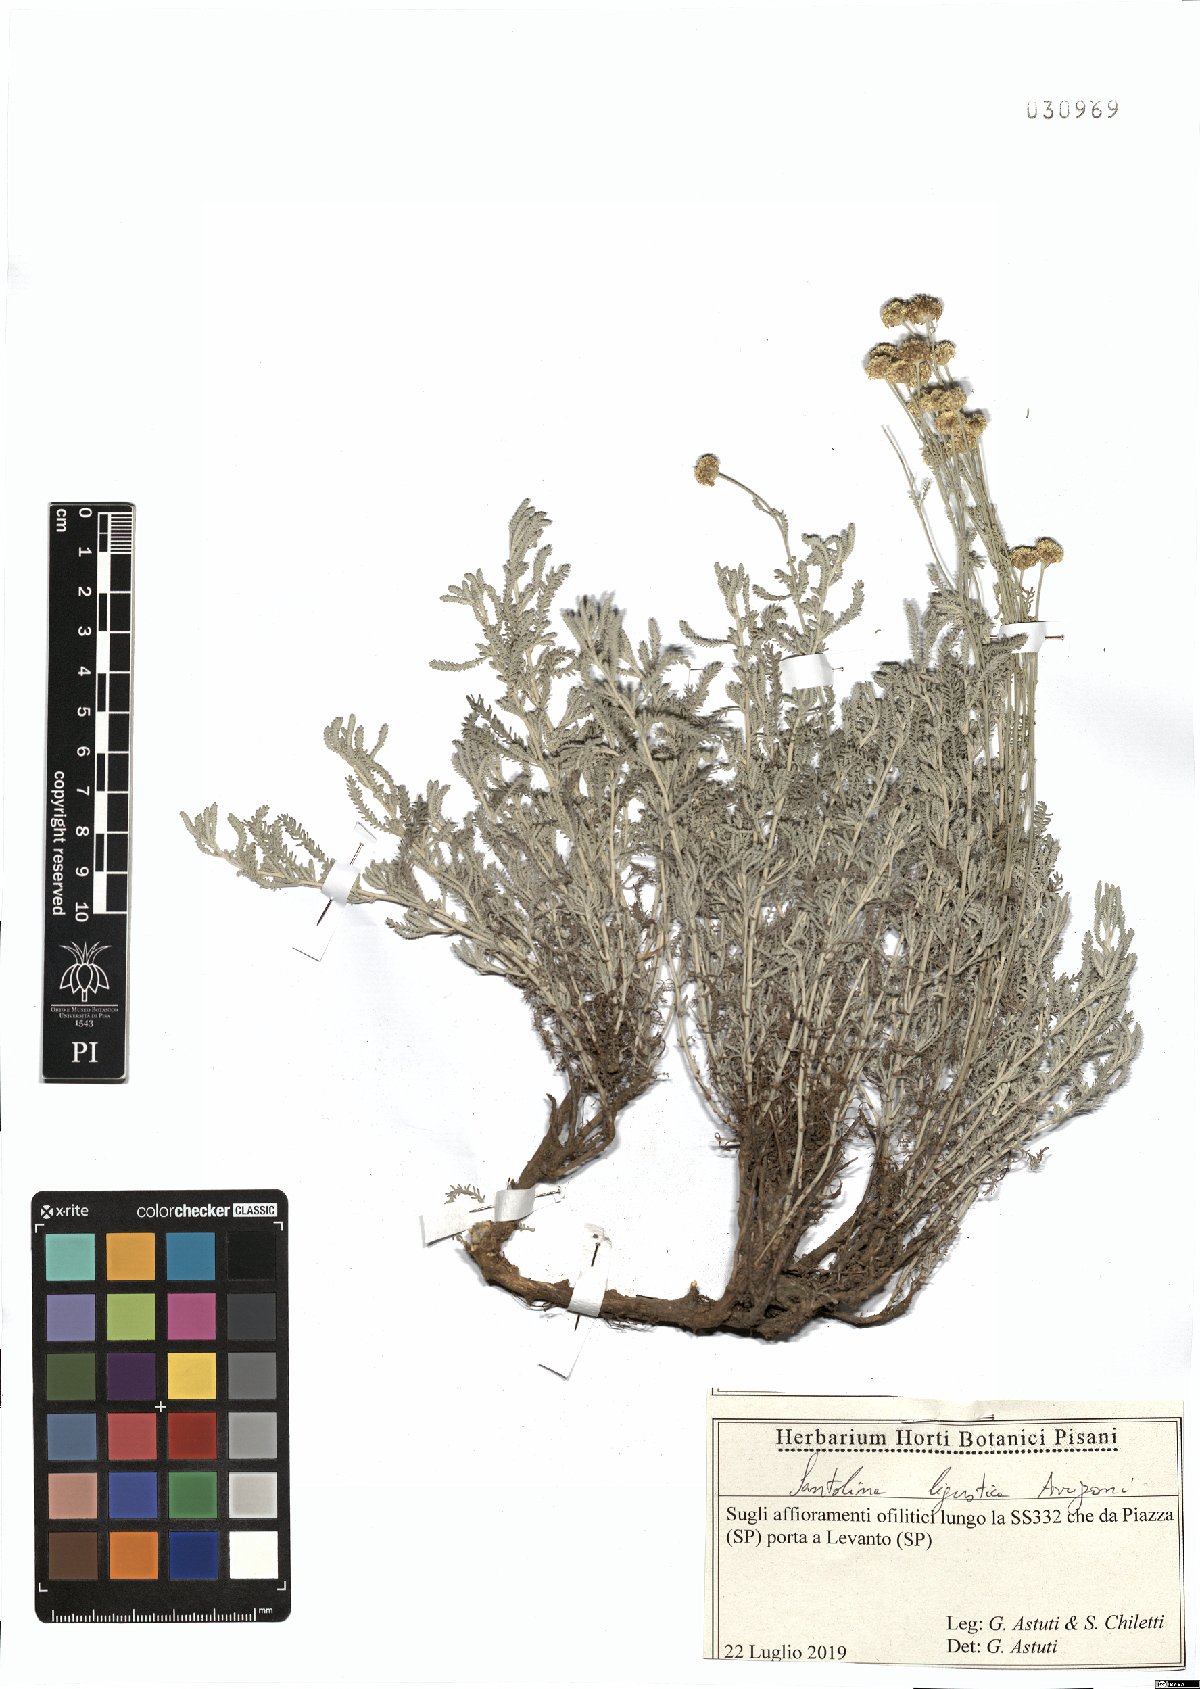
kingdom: Plantae
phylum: Tracheophyta
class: Magnoliopsida
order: Asterales
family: Asteraceae
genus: Santolina
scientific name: Santolina ligustica
